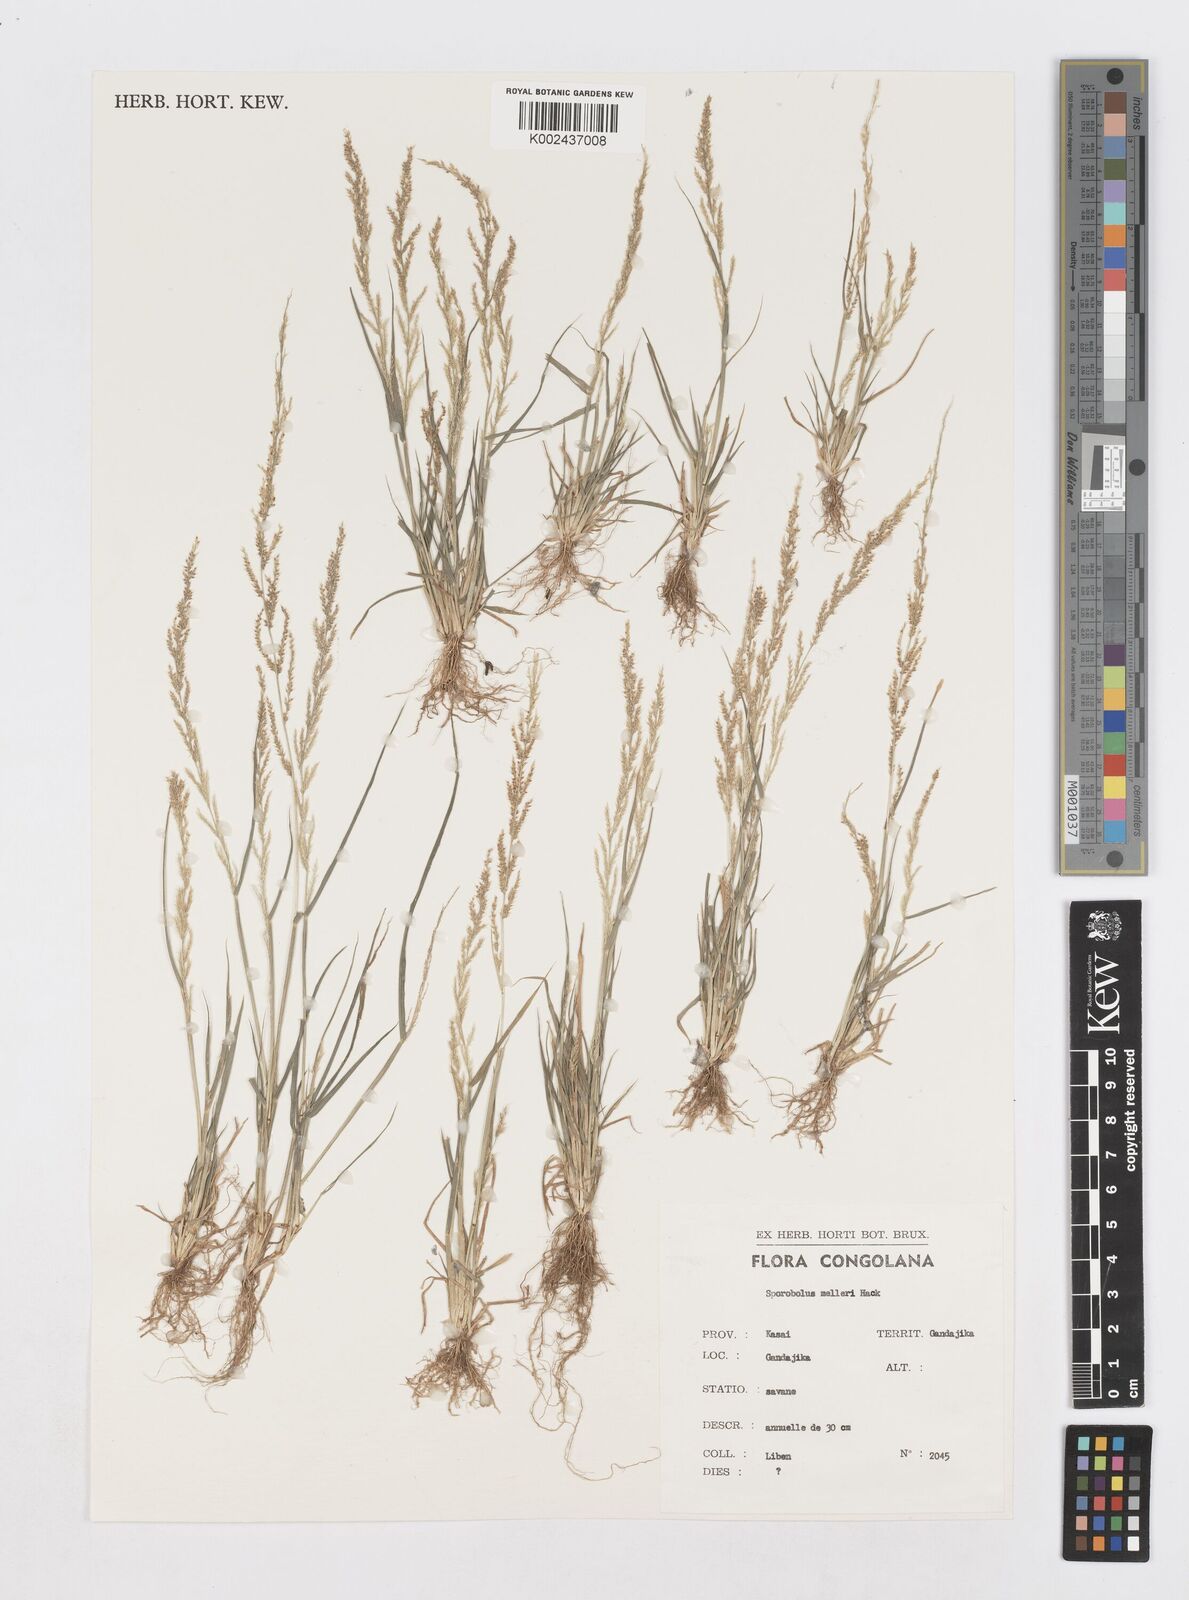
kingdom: Plantae
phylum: Tracheophyta
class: Liliopsida
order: Poales
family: Poaceae
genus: Sporobolus
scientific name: Sporobolus molleri
